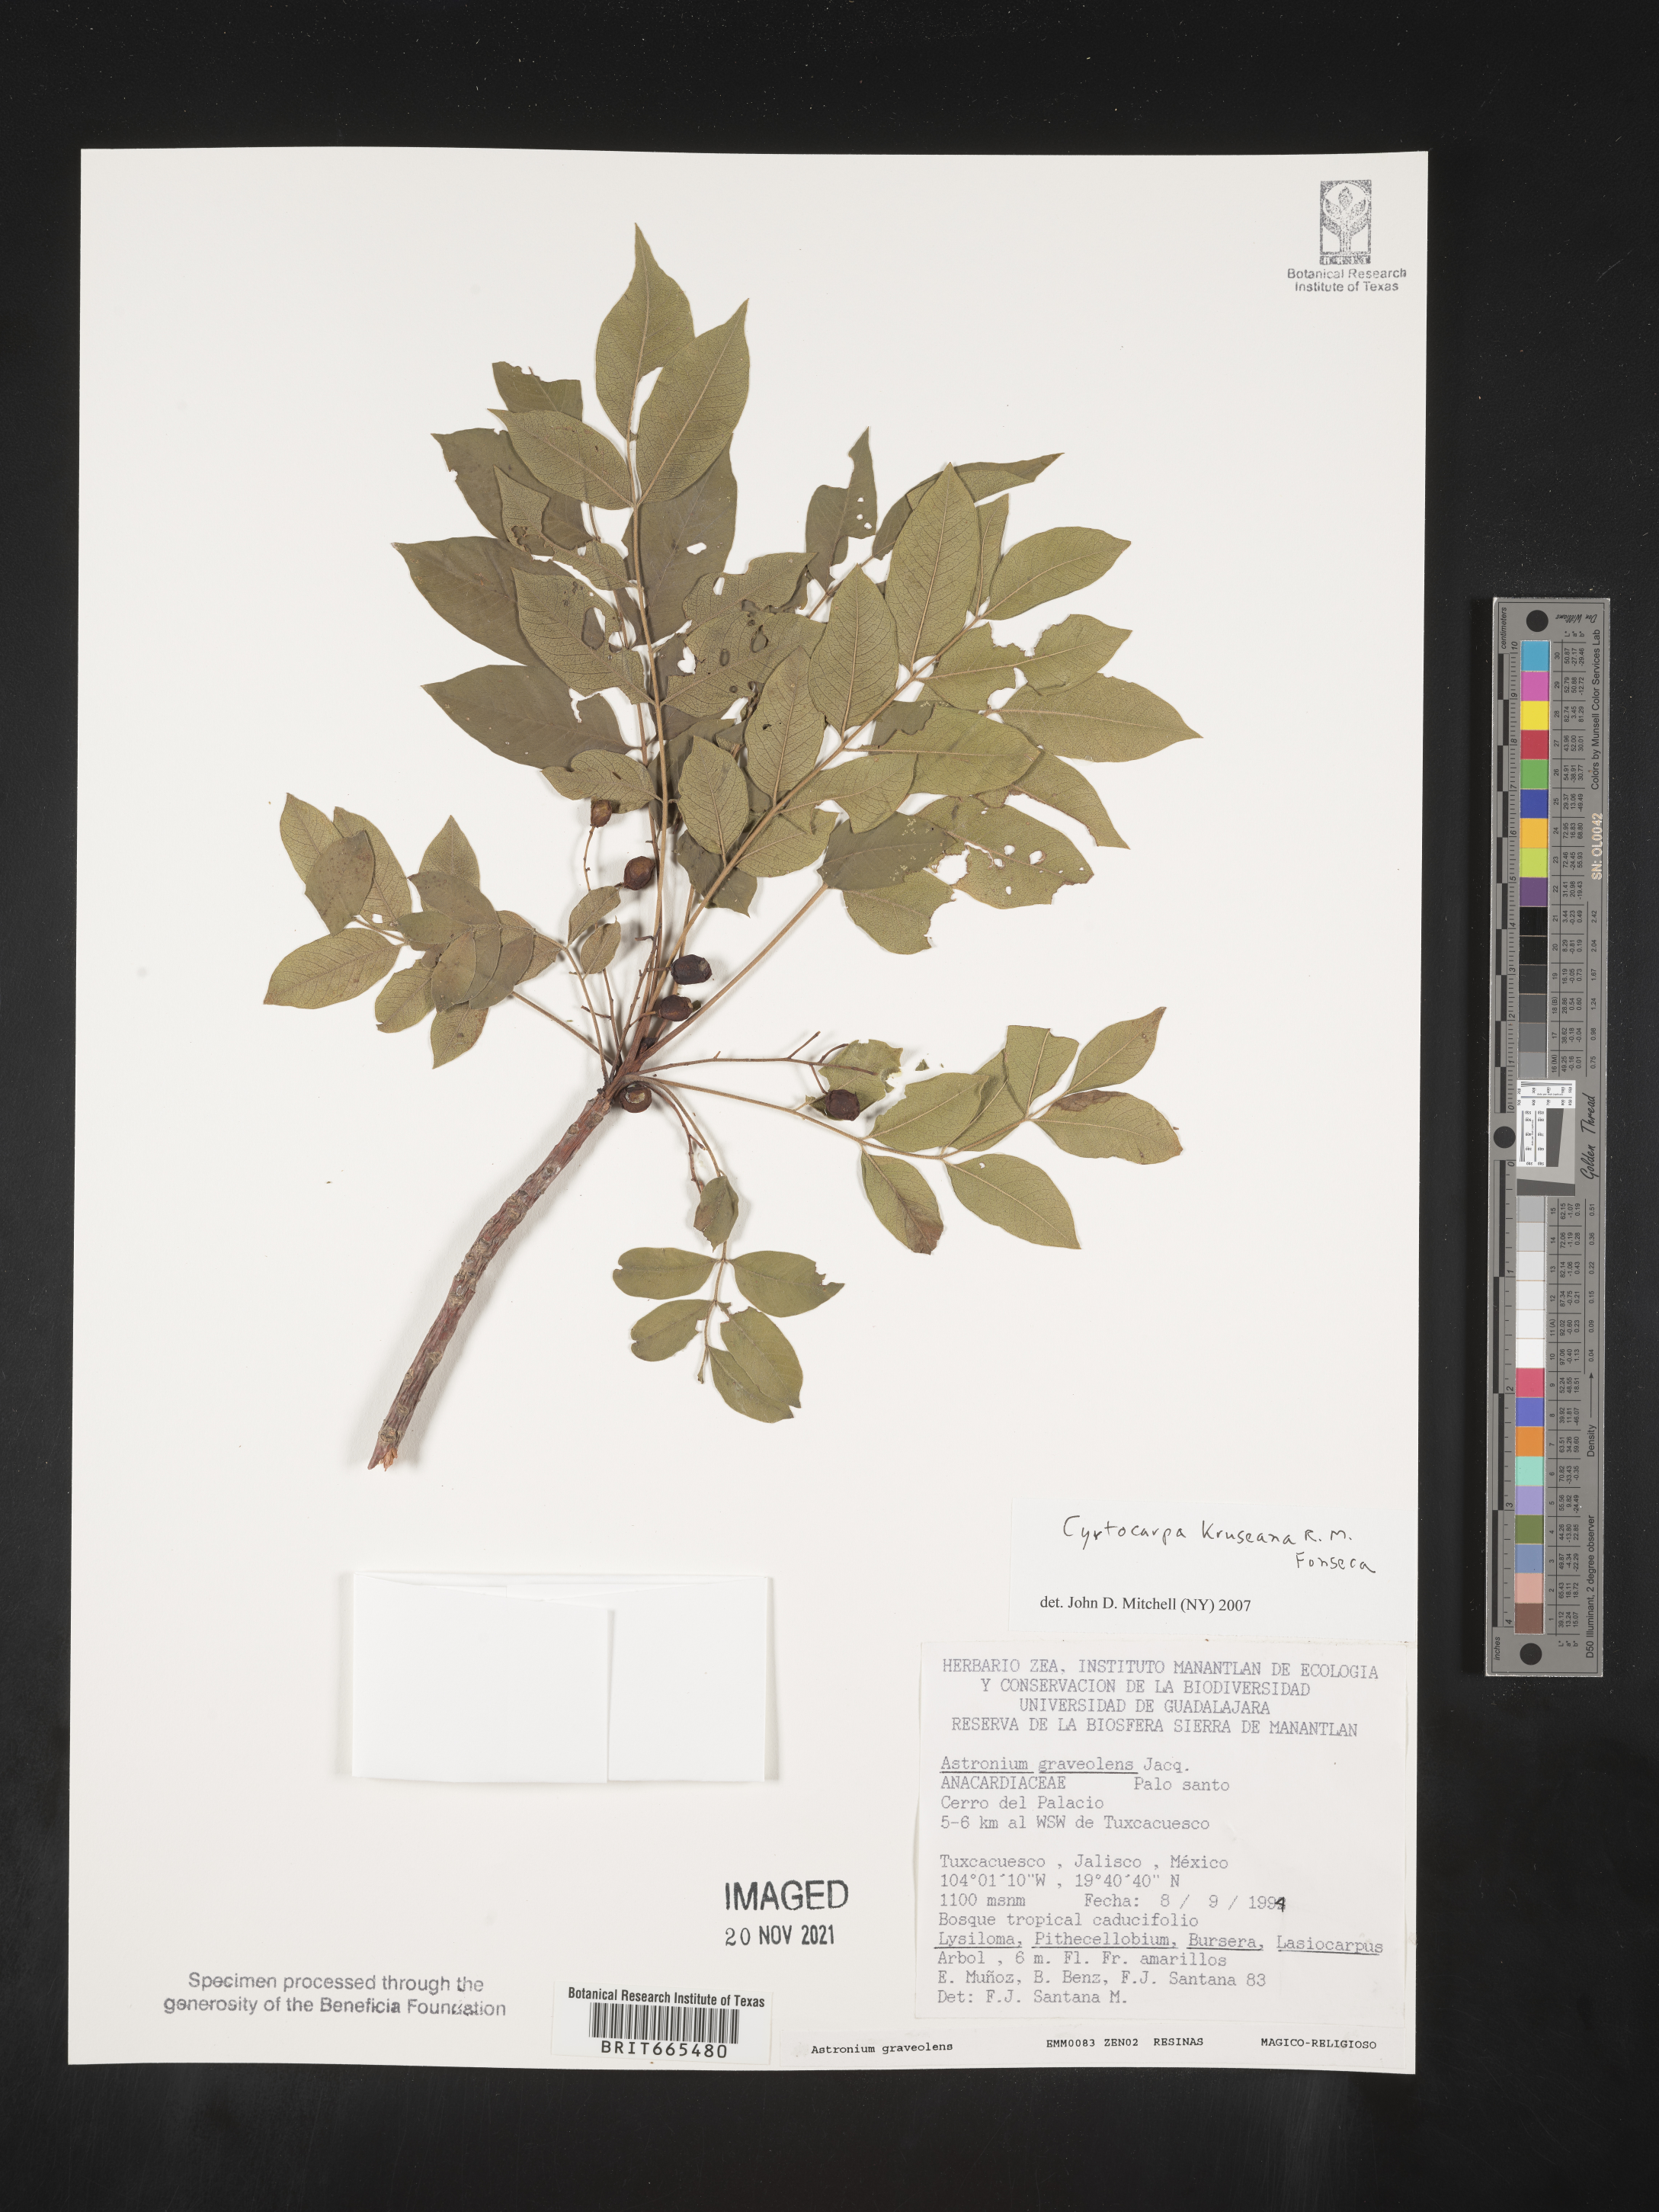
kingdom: Plantae
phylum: Tracheophyta
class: Magnoliopsida
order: Sapindales
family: Anacardiaceae
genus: Cyrtocarpa
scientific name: Cyrtocarpa
